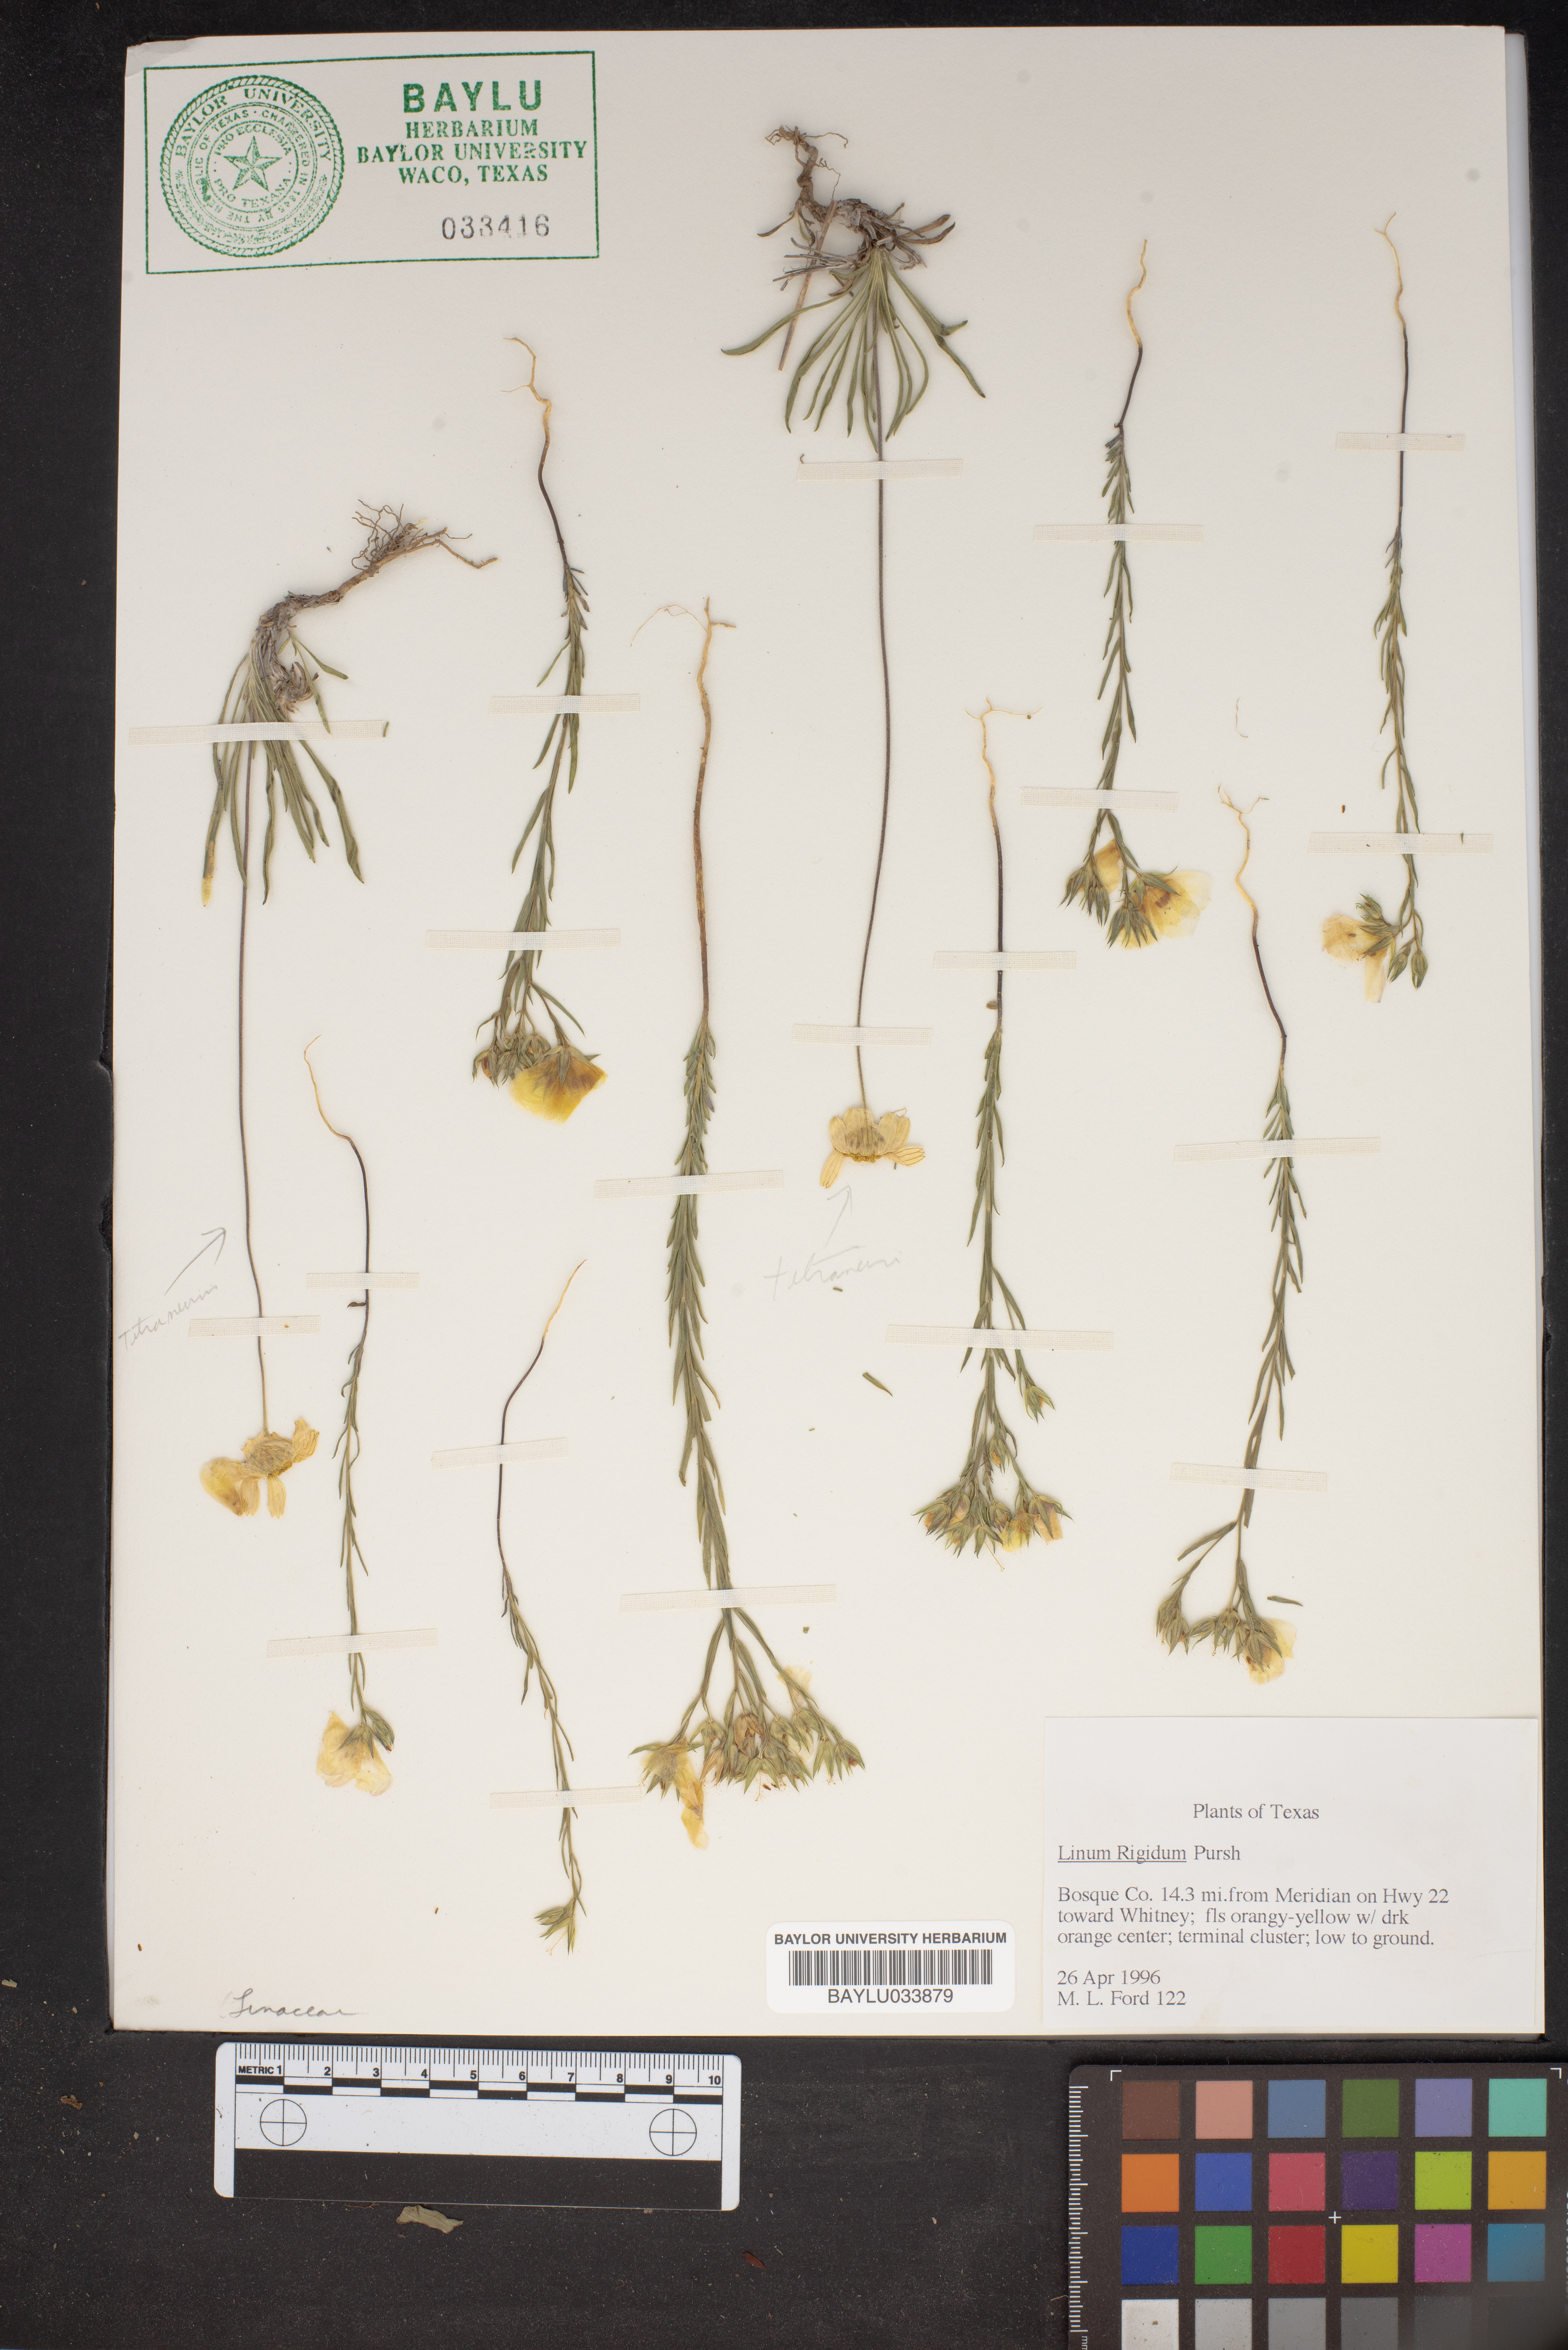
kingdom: Plantae
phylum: Tracheophyta
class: Magnoliopsida
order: Malpighiales
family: Linaceae
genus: Linum
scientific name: Linum rigidum
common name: Stiff-stem flax
